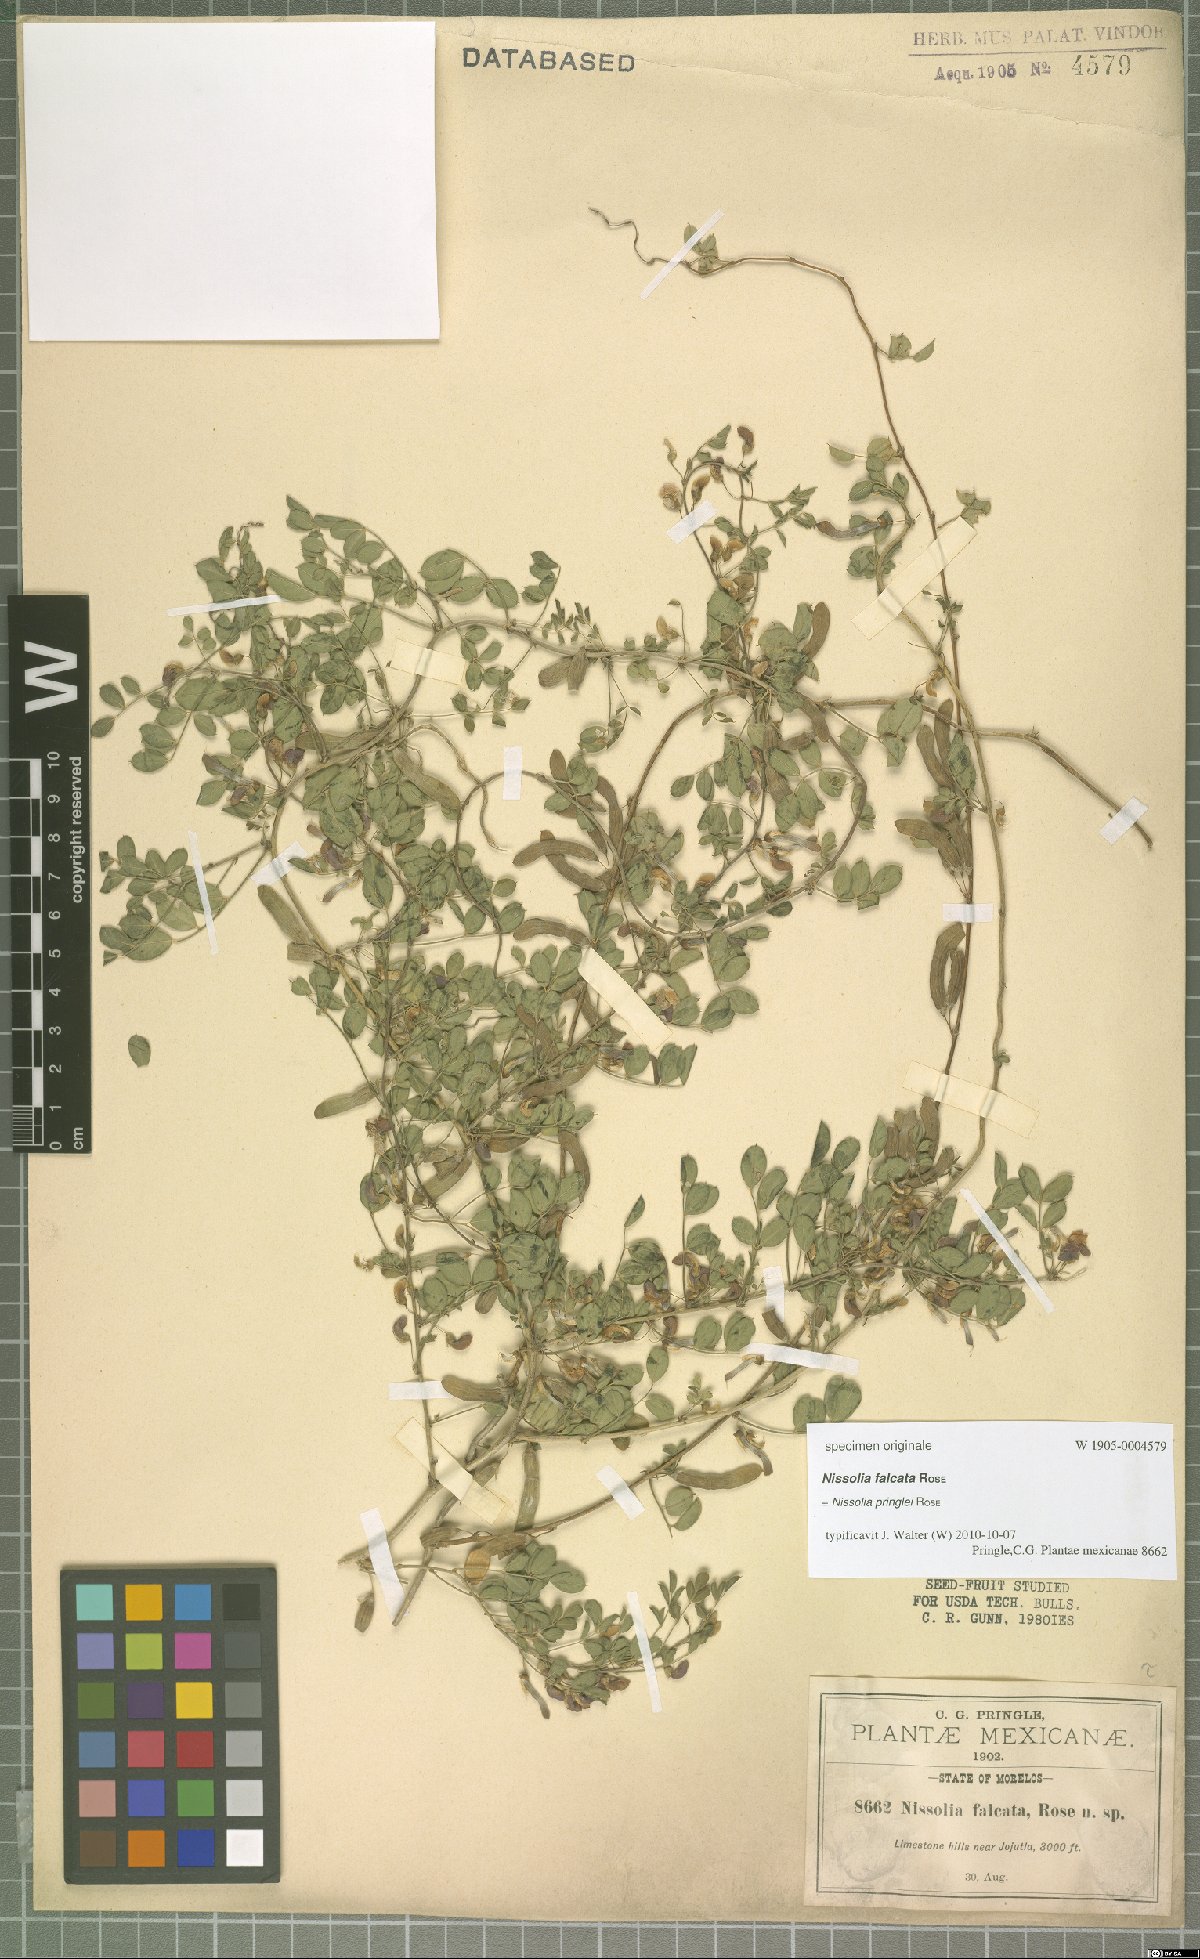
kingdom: Plantae
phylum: Tracheophyta
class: Magnoliopsida
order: Fabales
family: Fabaceae
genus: Nissolia
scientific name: Nissolia pringlei
